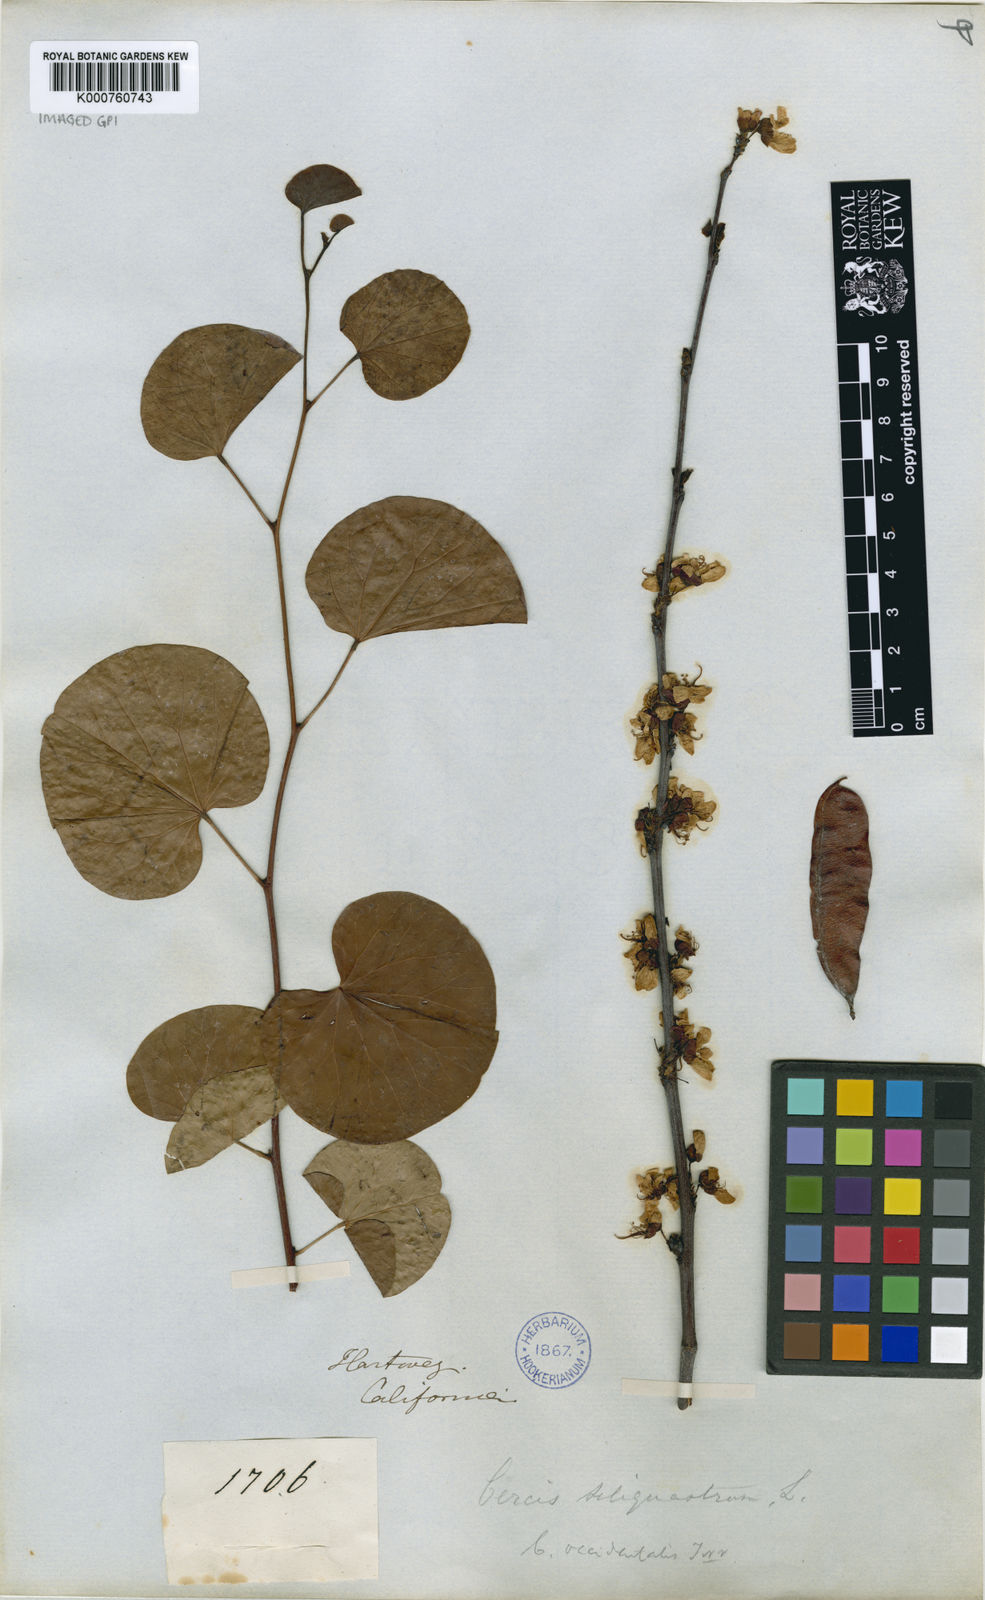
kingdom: Plantae
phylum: Tracheophyta
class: Magnoliopsida
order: Fabales
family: Fabaceae
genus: Cercis
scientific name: Cercis occidentalis
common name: California redbud
